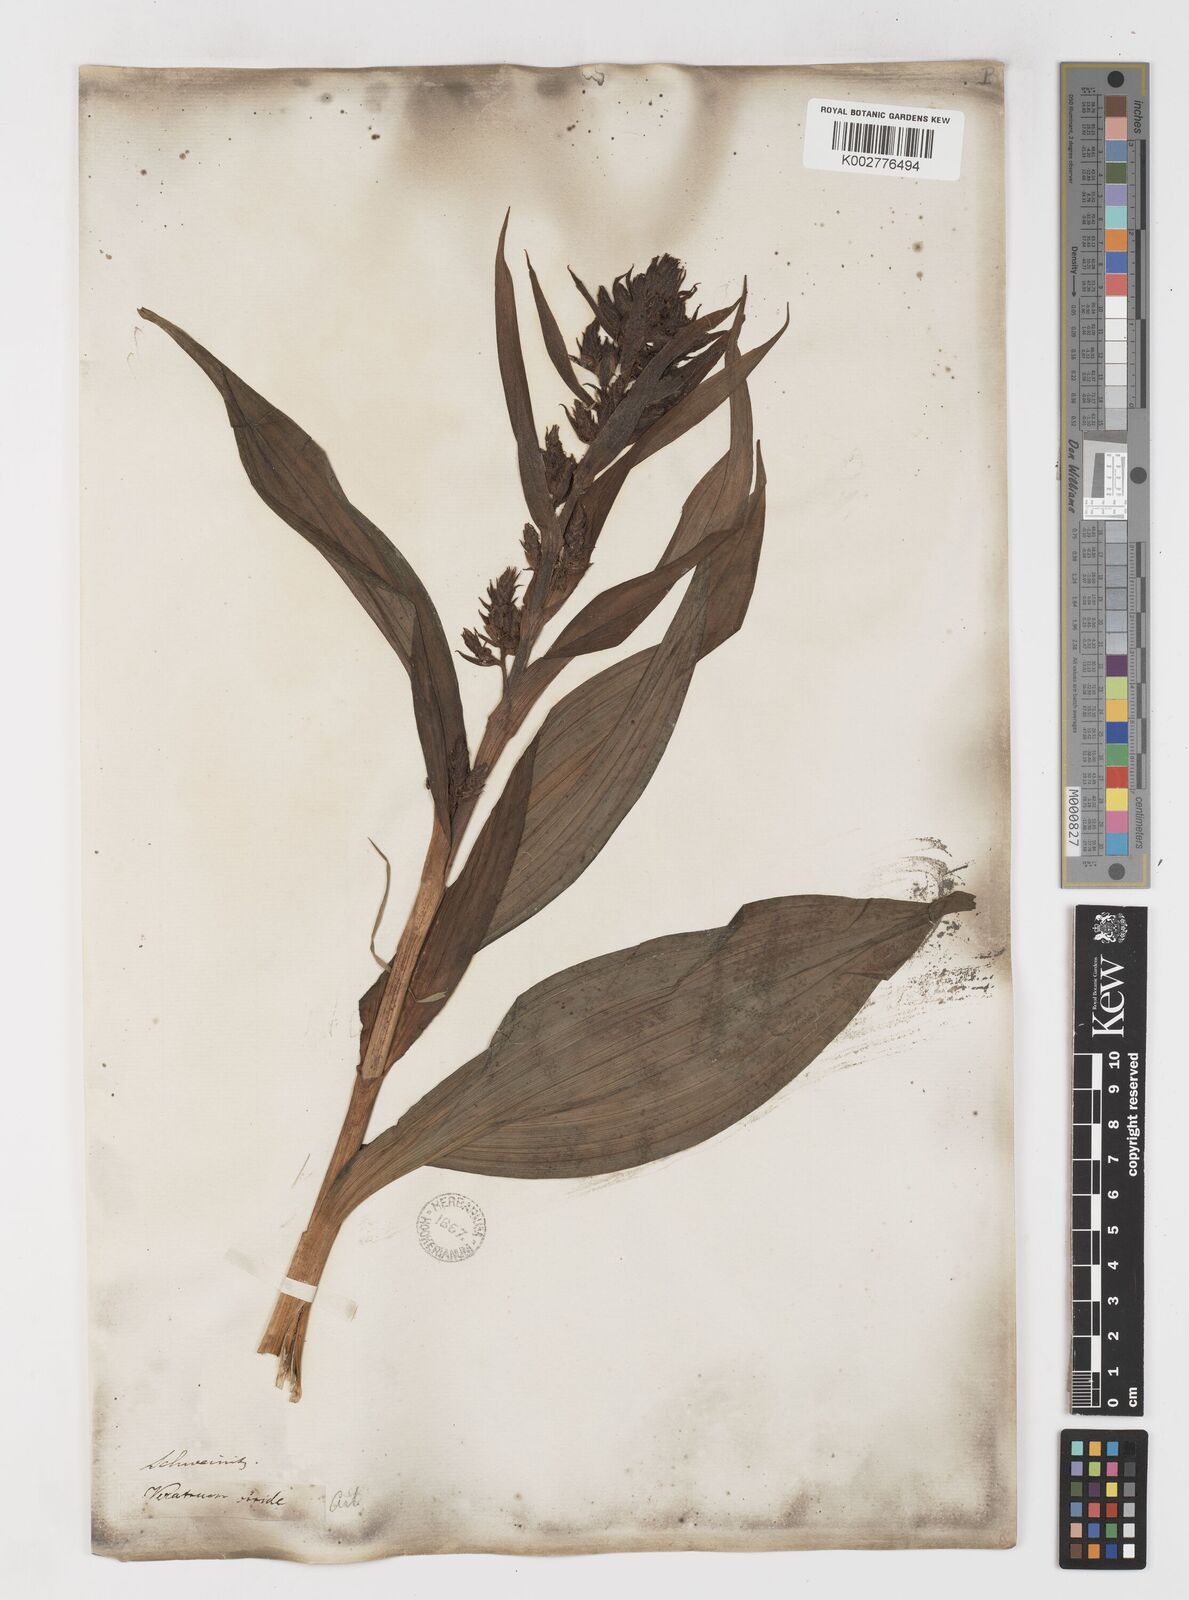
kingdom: Plantae
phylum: Tracheophyta
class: Liliopsida
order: Liliales
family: Melanthiaceae
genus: Veratrum
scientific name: Veratrum viride
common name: American false hellebore
